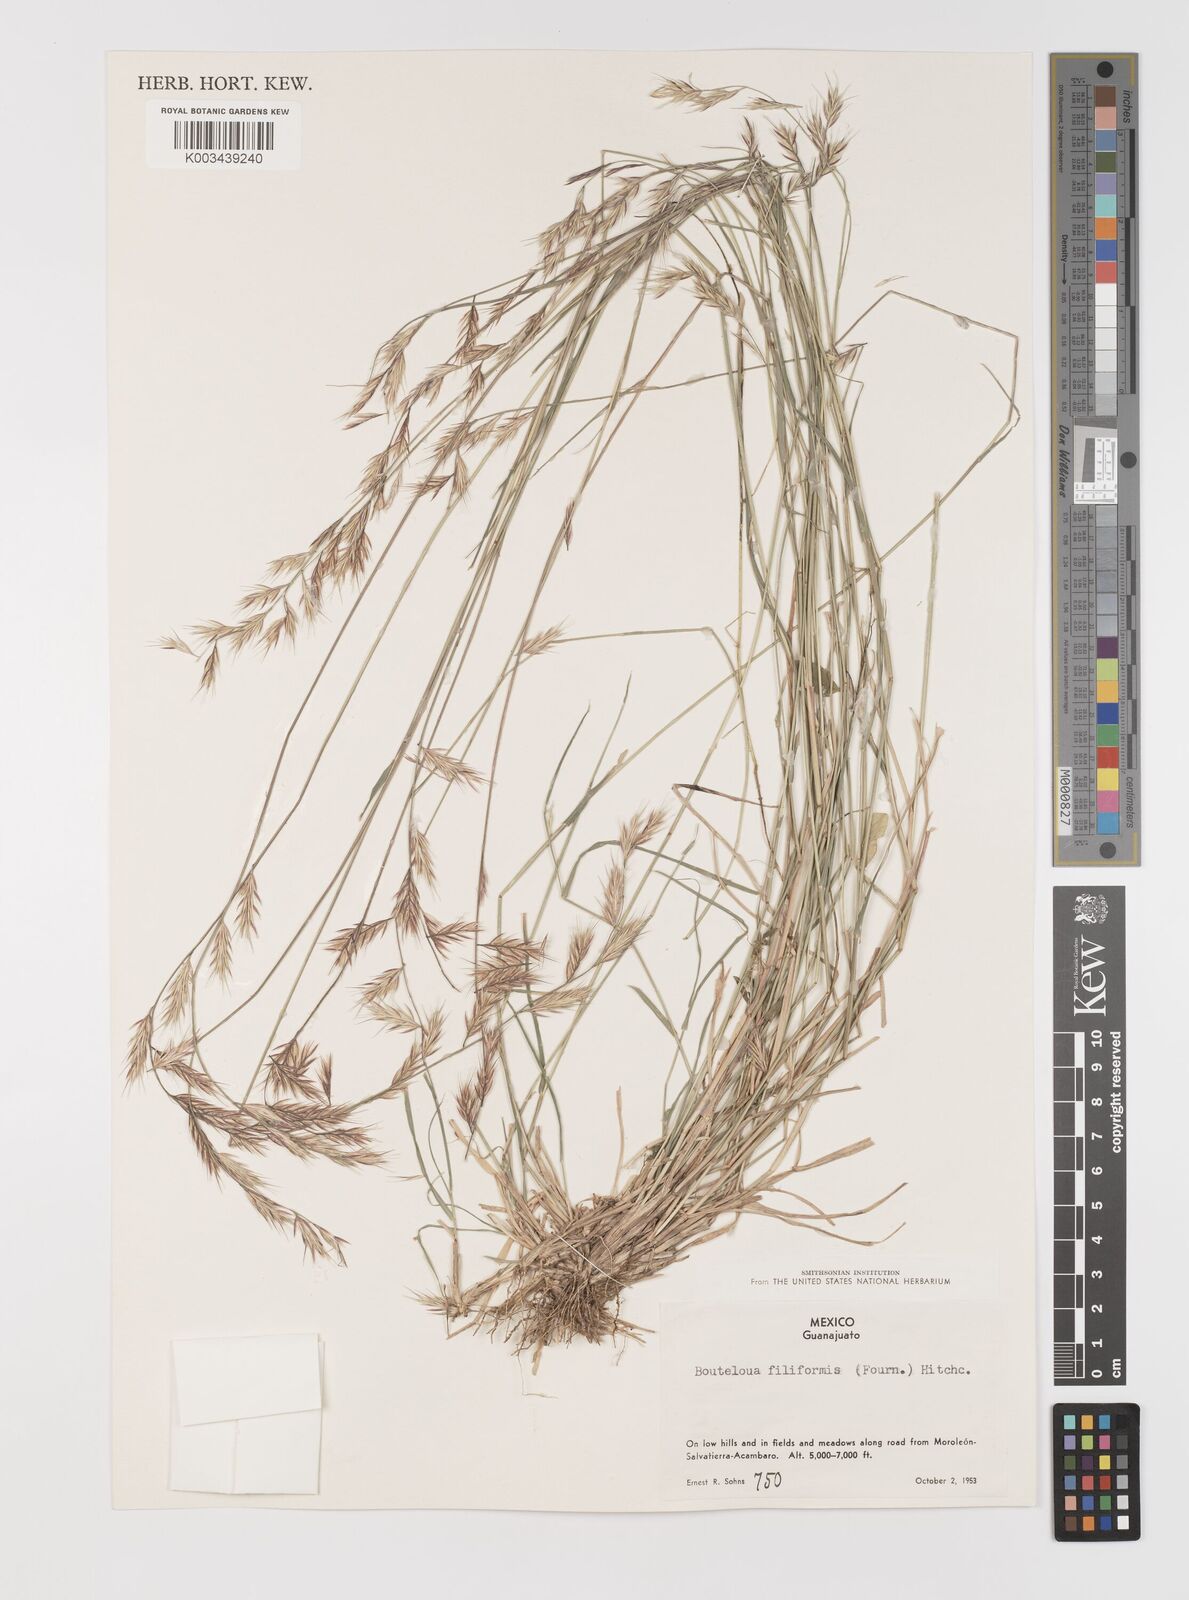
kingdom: Plantae
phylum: Tracheophyta
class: Liliopsida
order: Poales
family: Poaceae
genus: Bouteloua
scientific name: Bouteloua repens
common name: Slender grama
